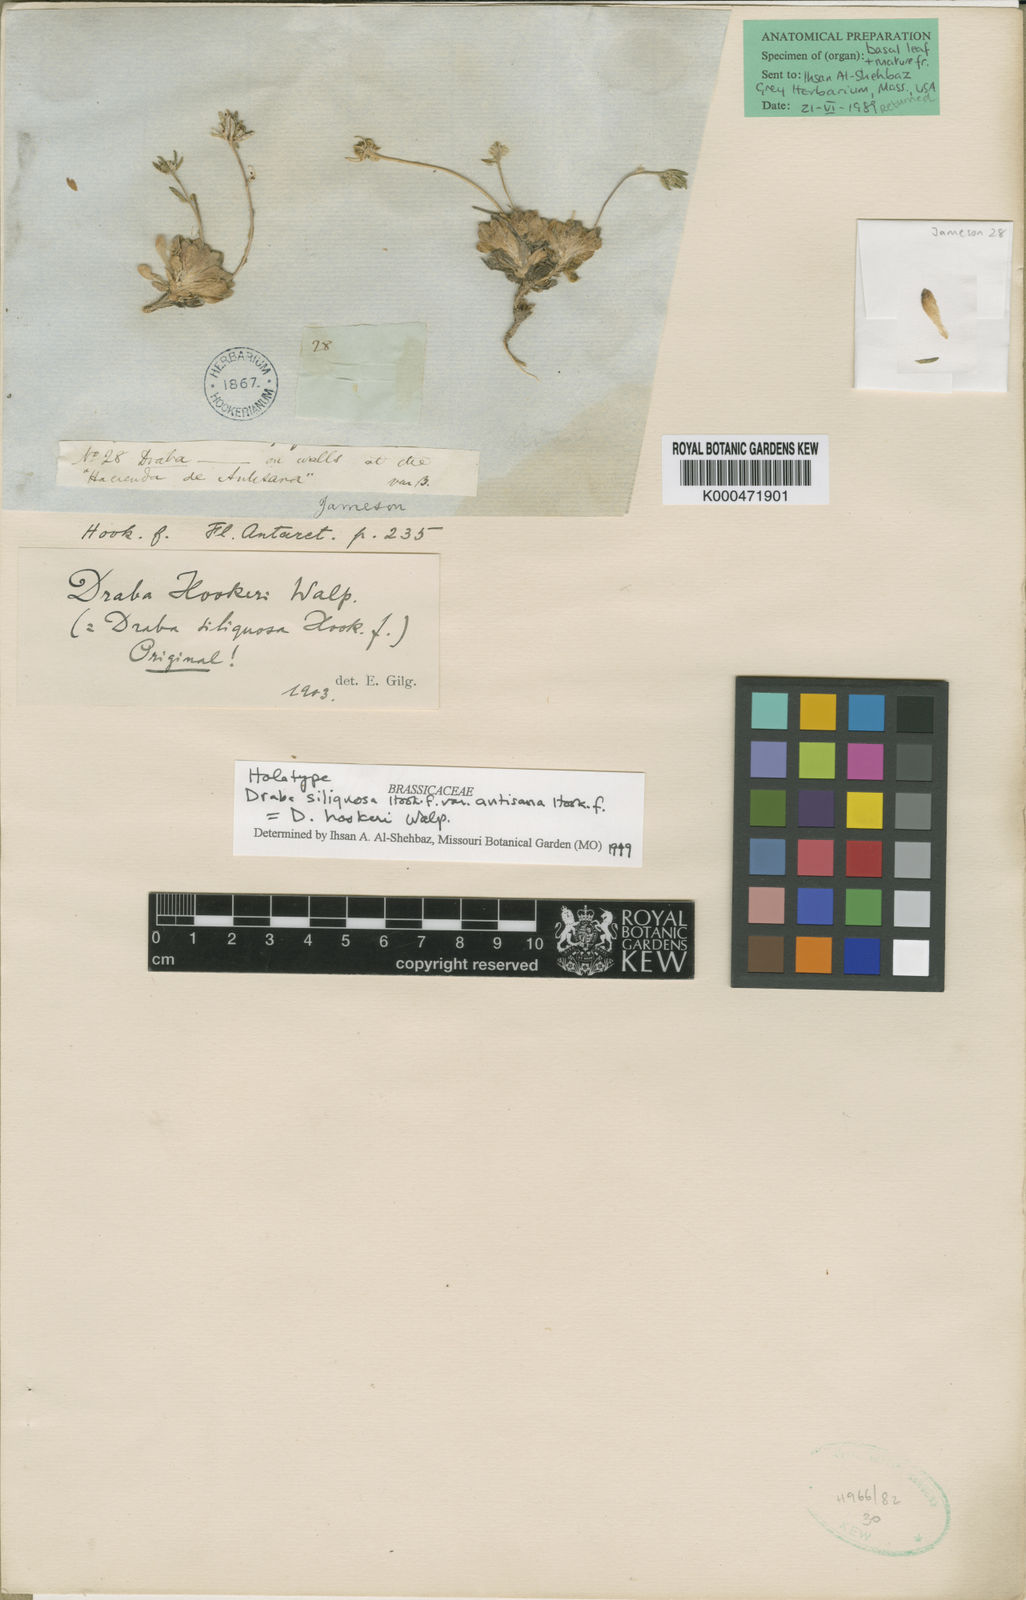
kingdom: Plantae
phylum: Tracheophyta
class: Magnoliopsida
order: Brassicales
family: Brassicaceae
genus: Draba
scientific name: Draba hookeri
